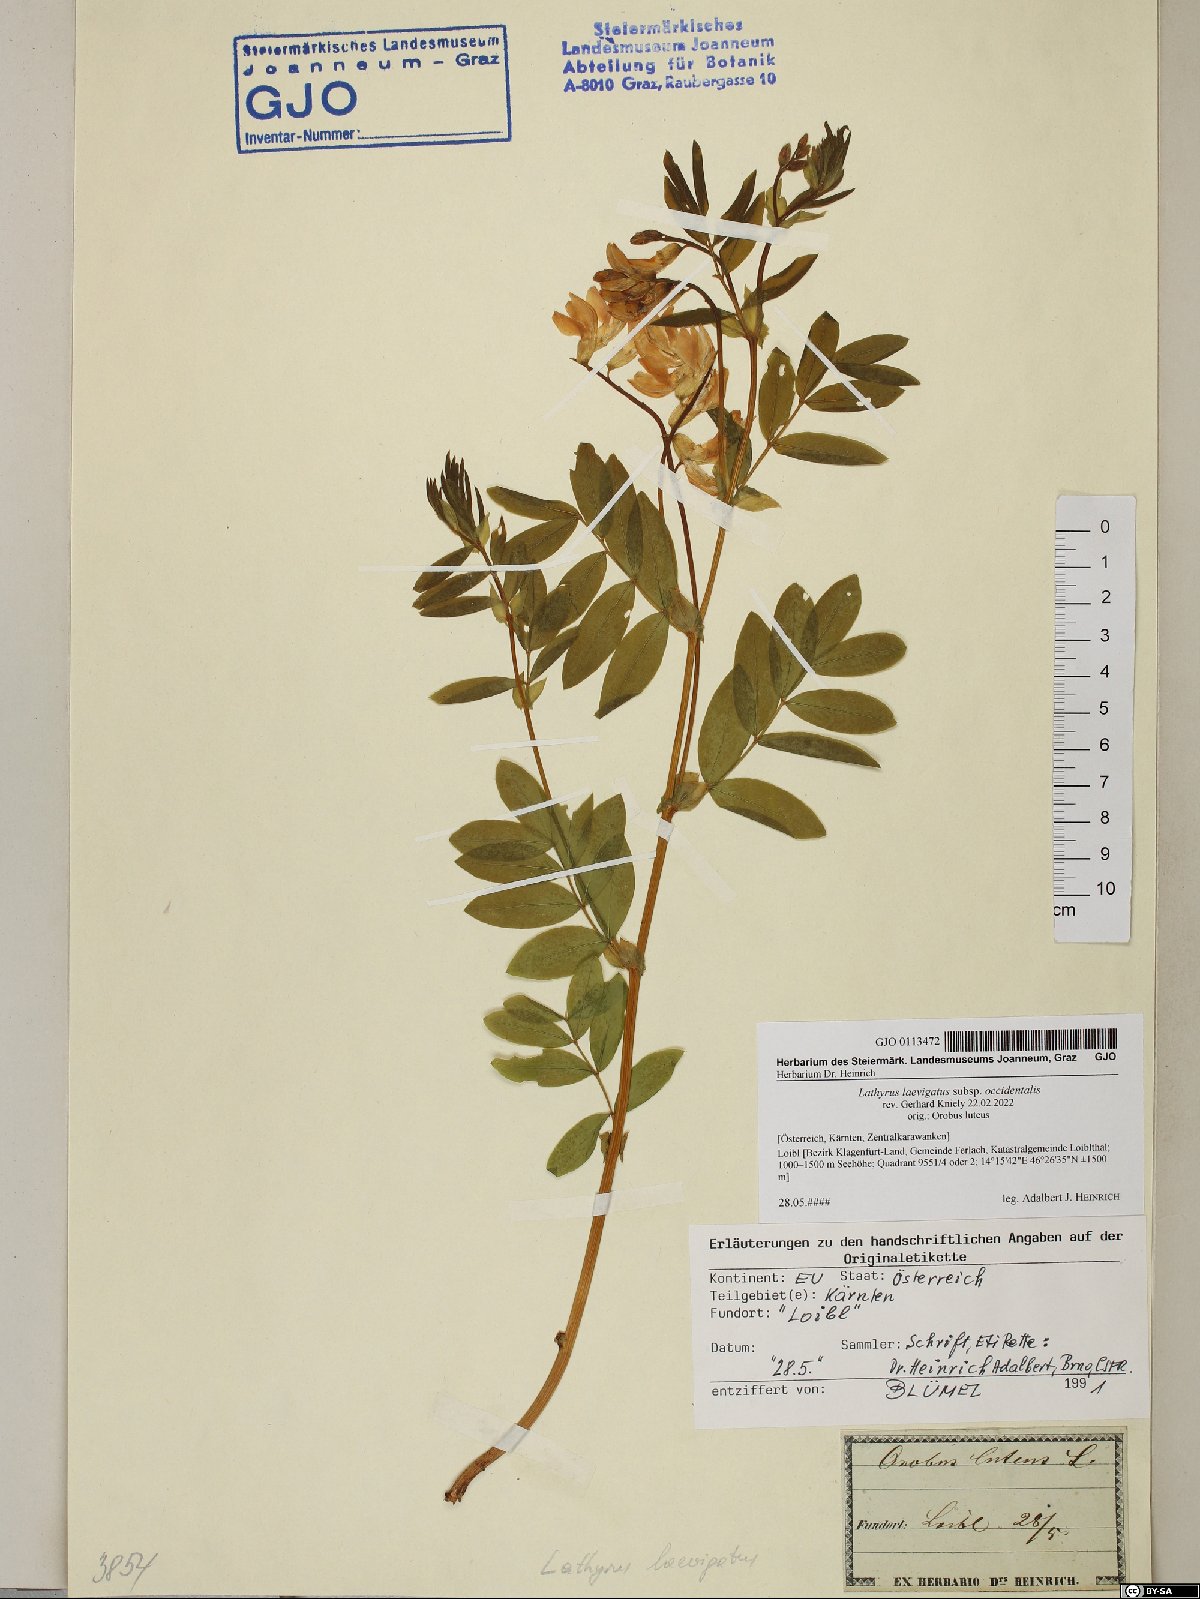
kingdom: Plantae
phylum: Tracheophyta
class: Magnoliopsida
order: Fabales
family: Fabaceae
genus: Lathyrus
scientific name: Lathyrus laevigatus
